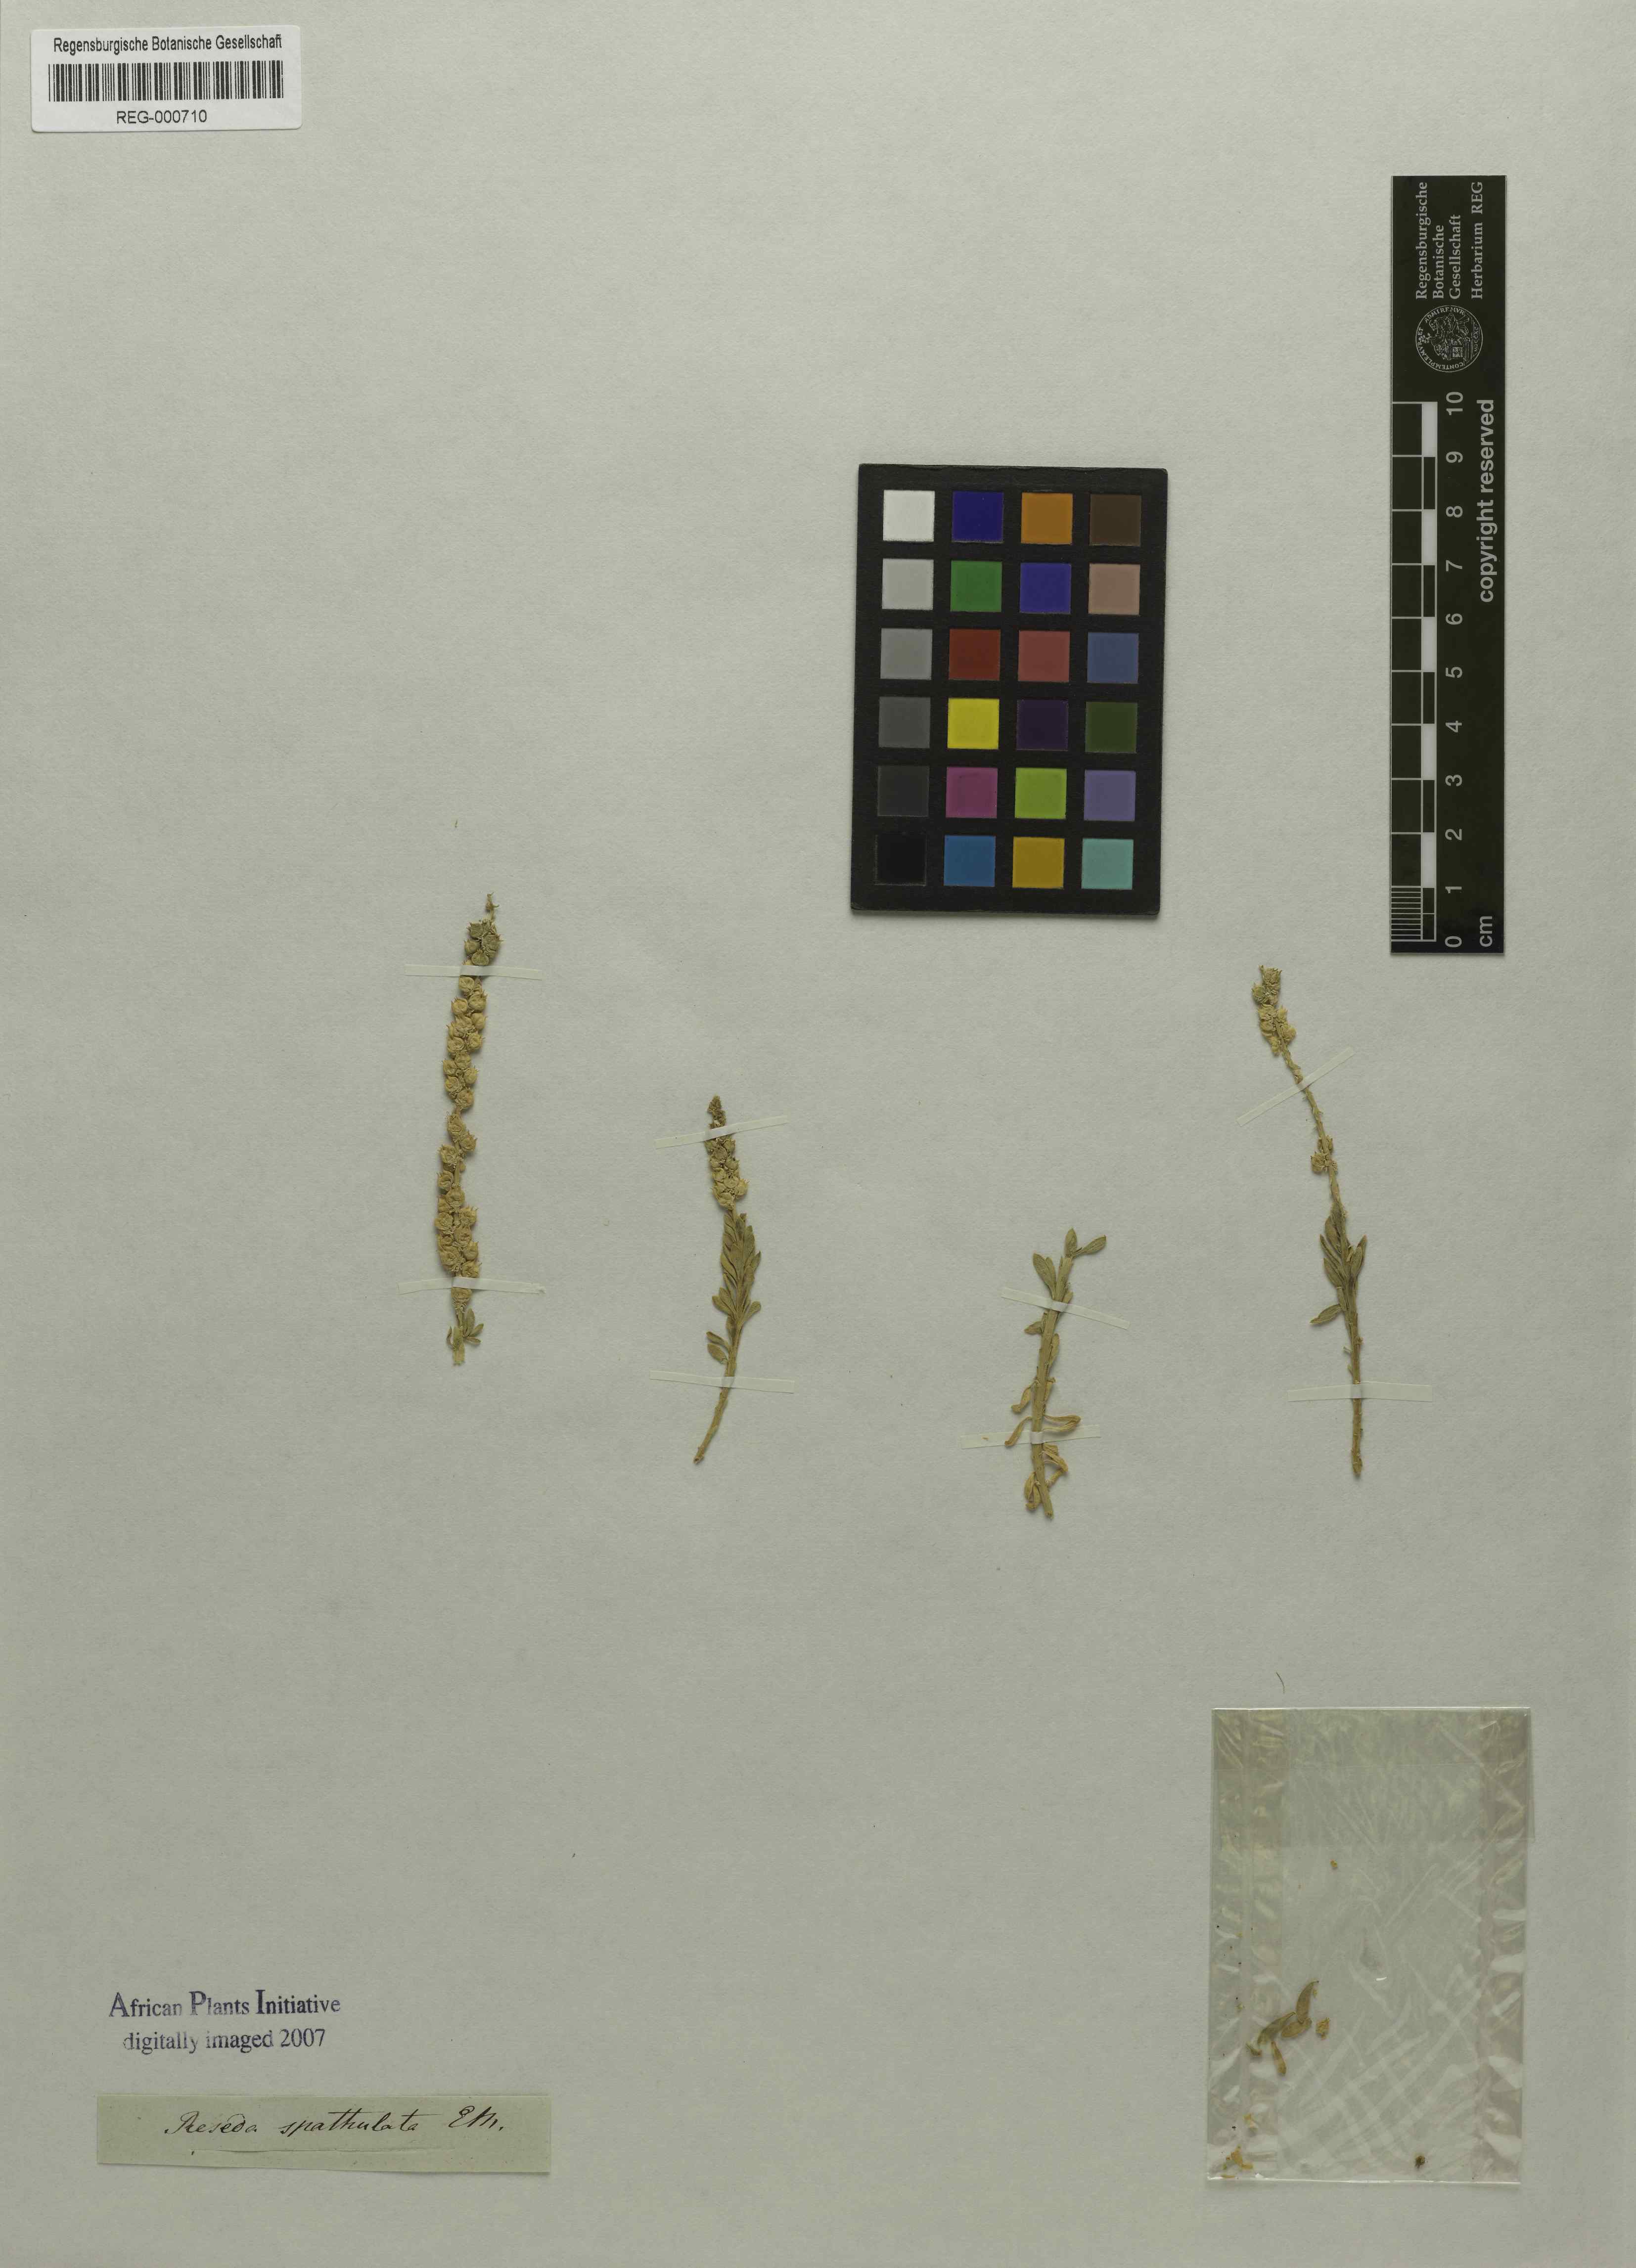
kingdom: Plantae
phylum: Tracheophyta
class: Magnoliopsida
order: Brassicales
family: Resedaceae
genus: Oligomeris
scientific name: Oligomeris dipetala
